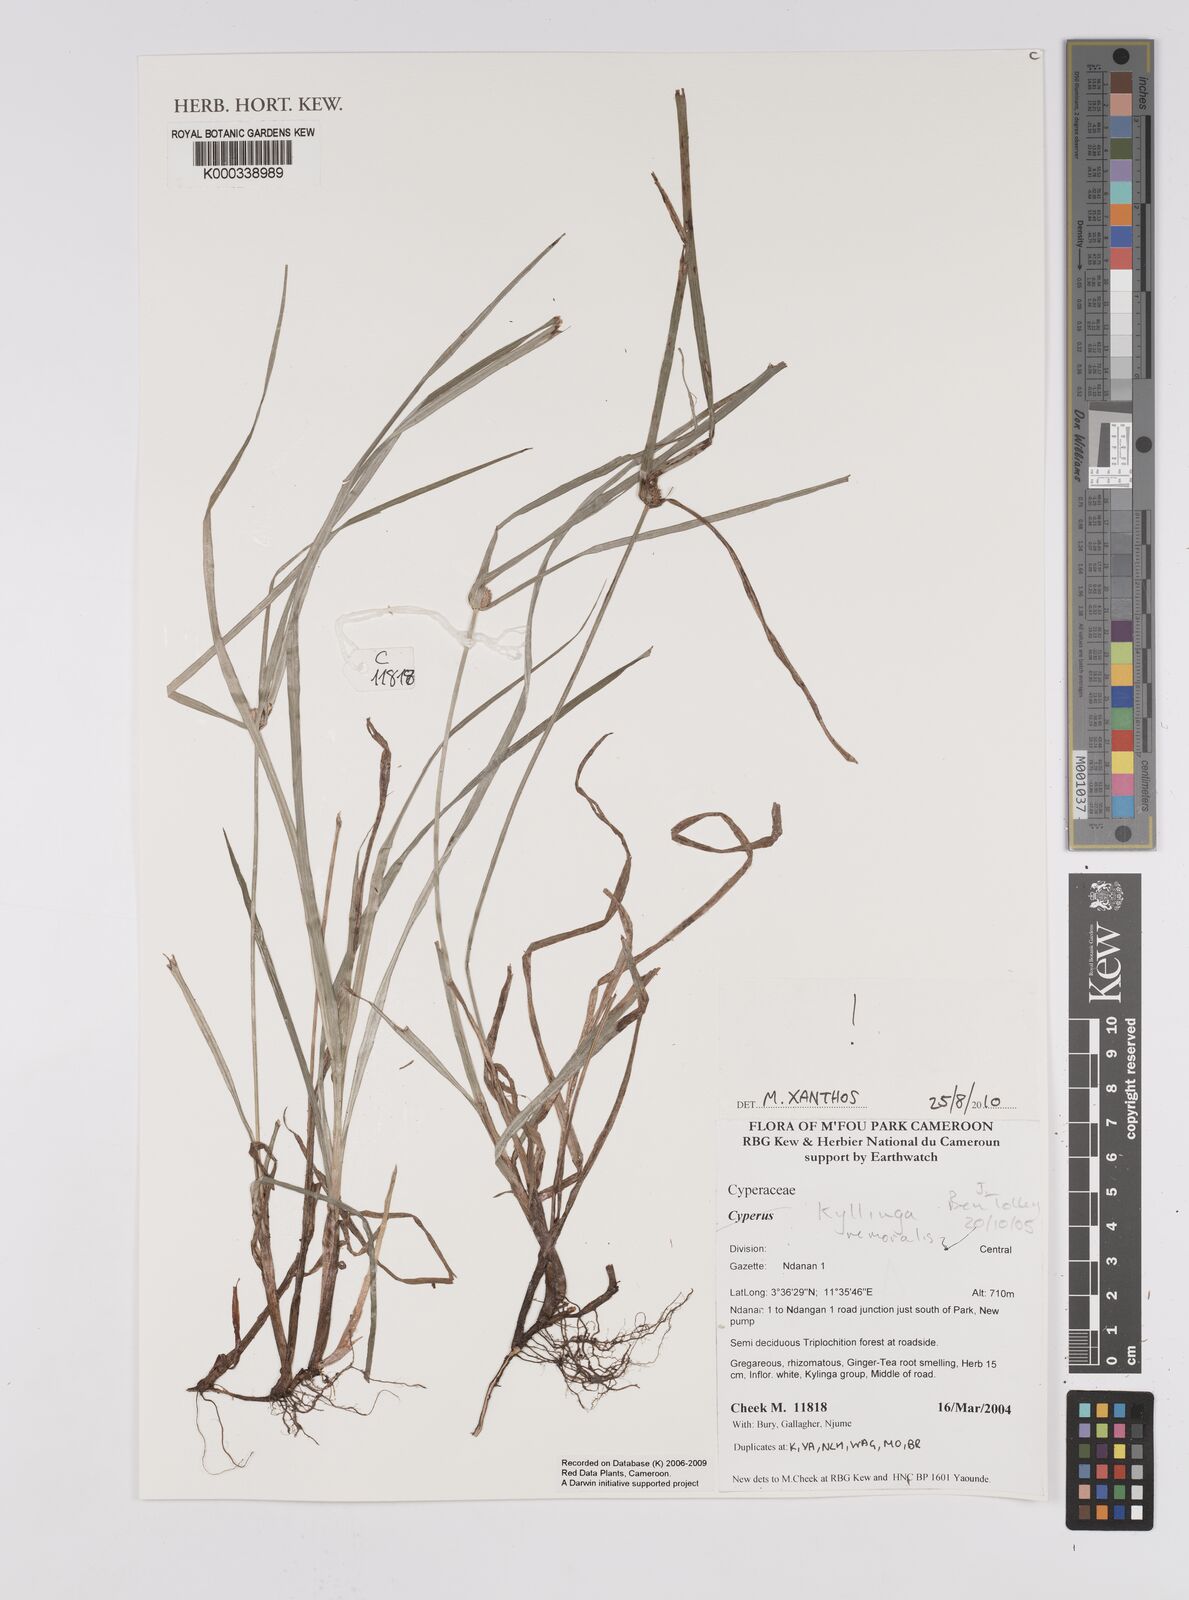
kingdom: Plantae
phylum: Tracheophyta
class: Liliopsida
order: Poales
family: Cyperaceae
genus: Cyperus
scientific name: Cyperus mindorensis
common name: Flatsedge
